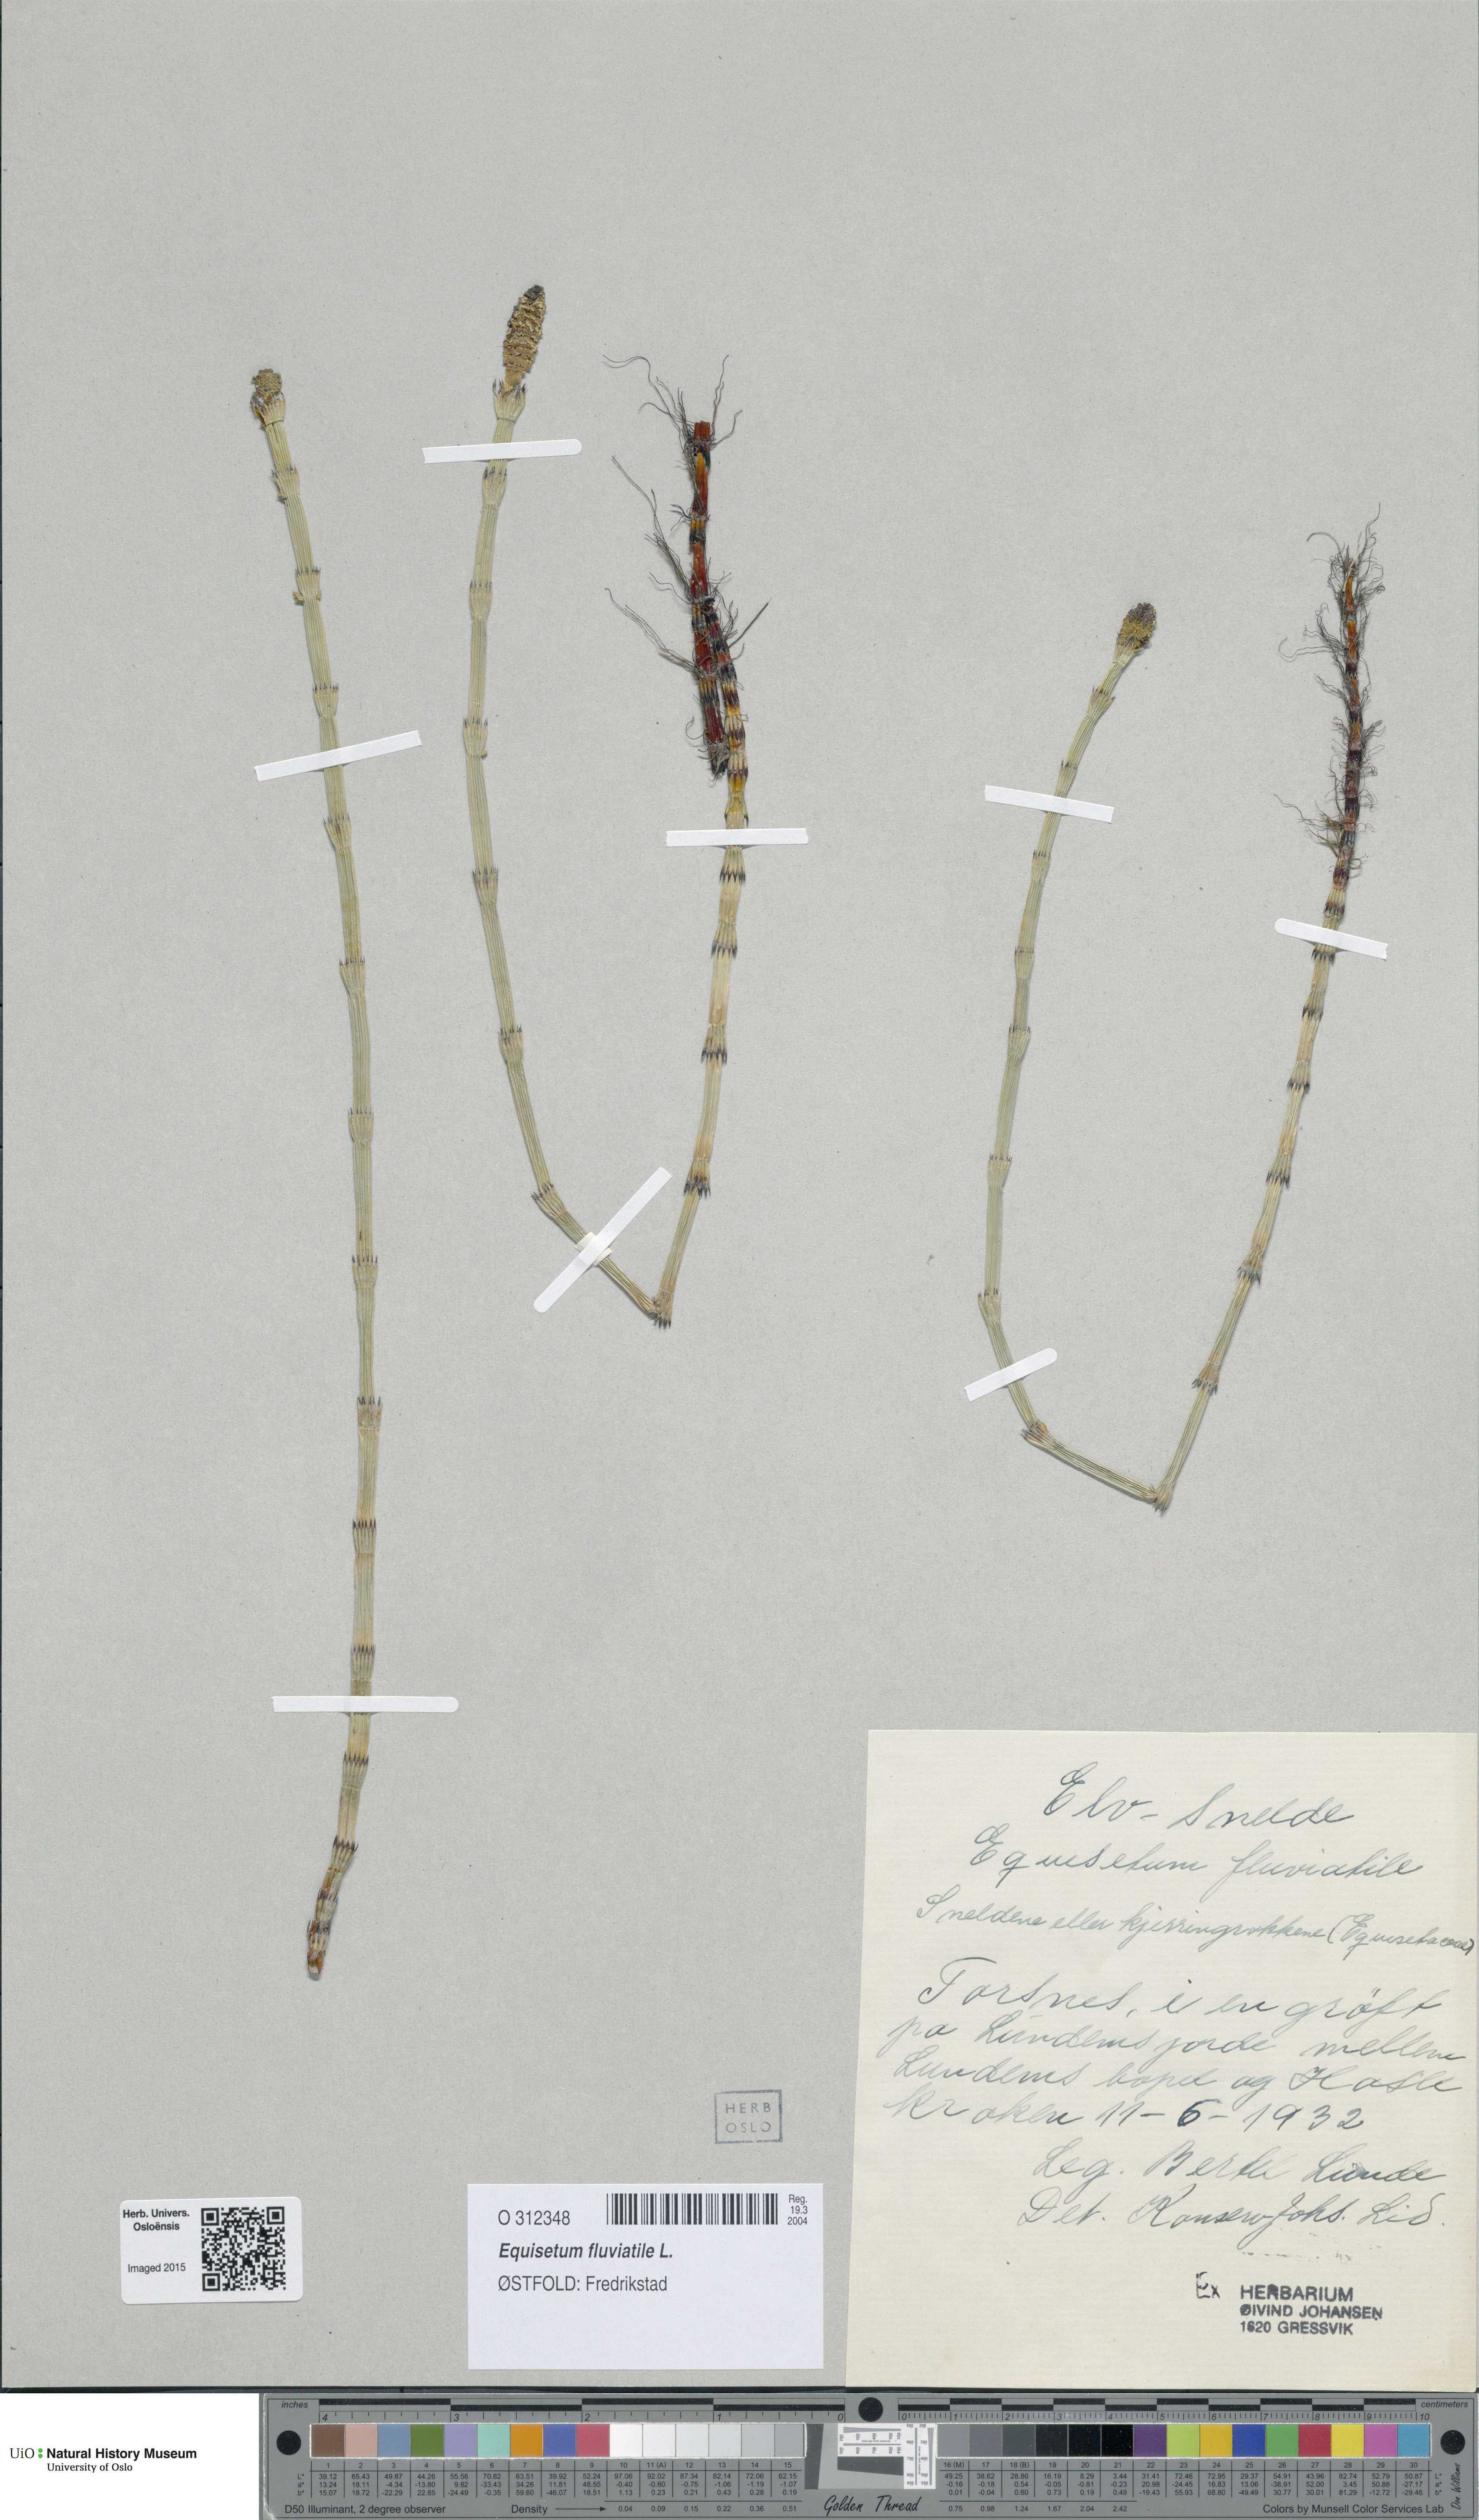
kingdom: Plantae
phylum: Tracheophyta
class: Polypodiopsida
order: Equisetales
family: Equisetaceae
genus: Equisetum
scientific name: Equisetum fluviatile
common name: Water horsetail
